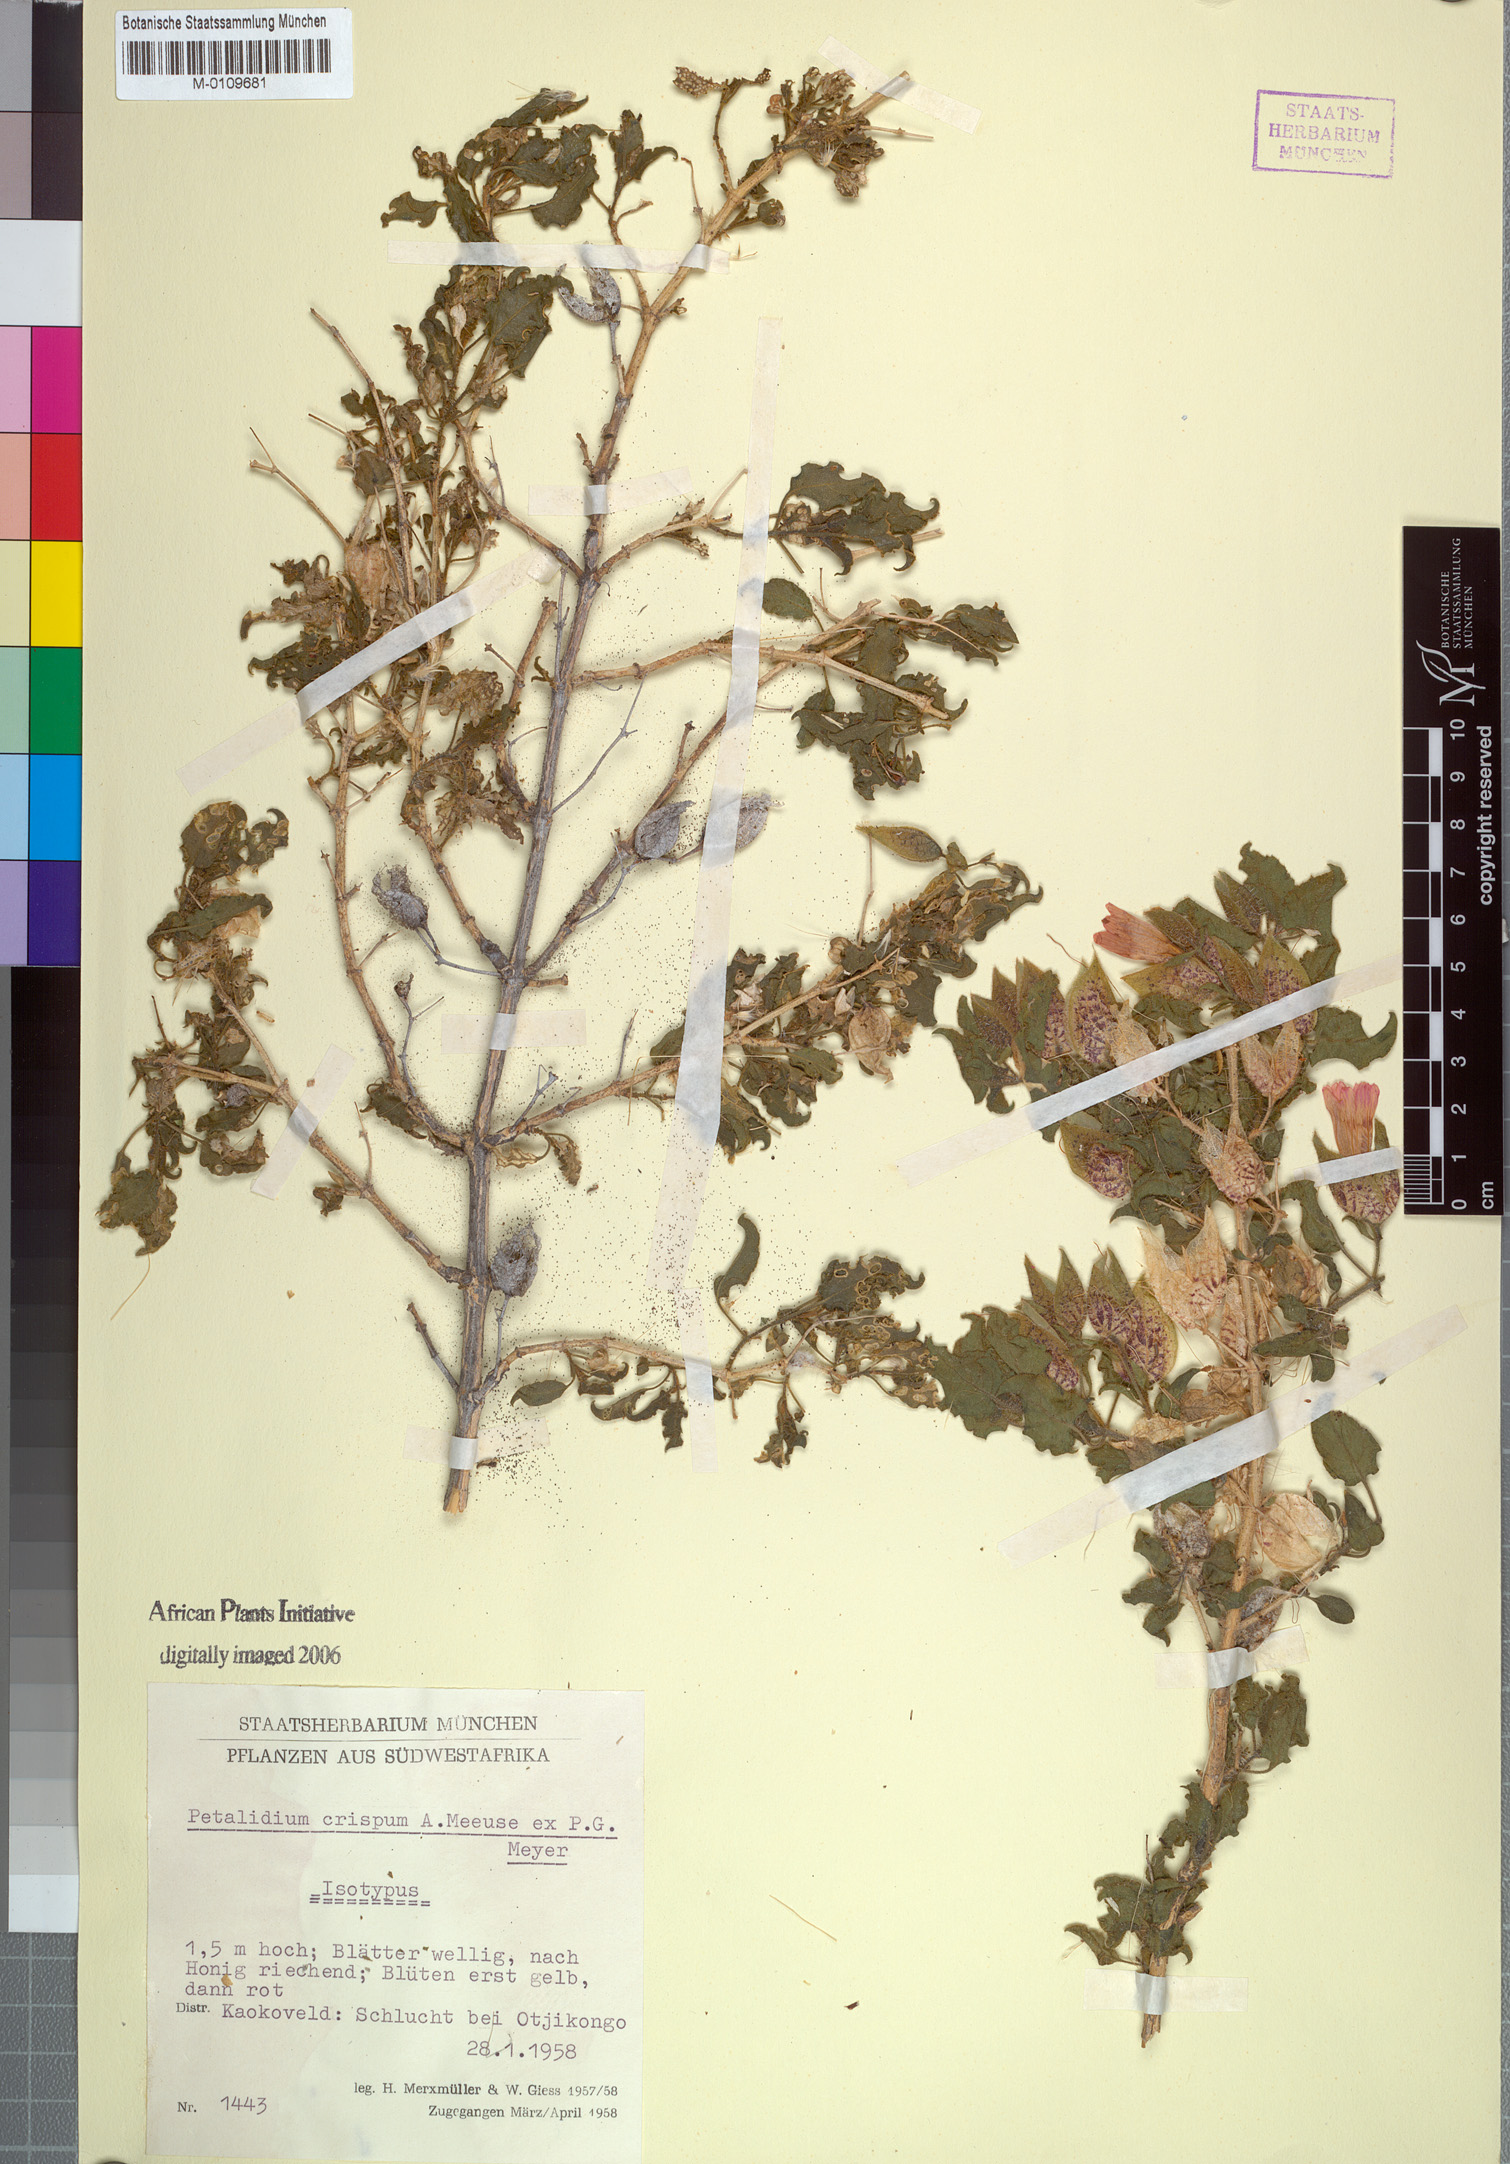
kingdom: Plantae
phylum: Tracheophyta
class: Magnoliopsida
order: Lamiales
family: Acanthaceae
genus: Petalidium
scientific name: Petalidium crispum
